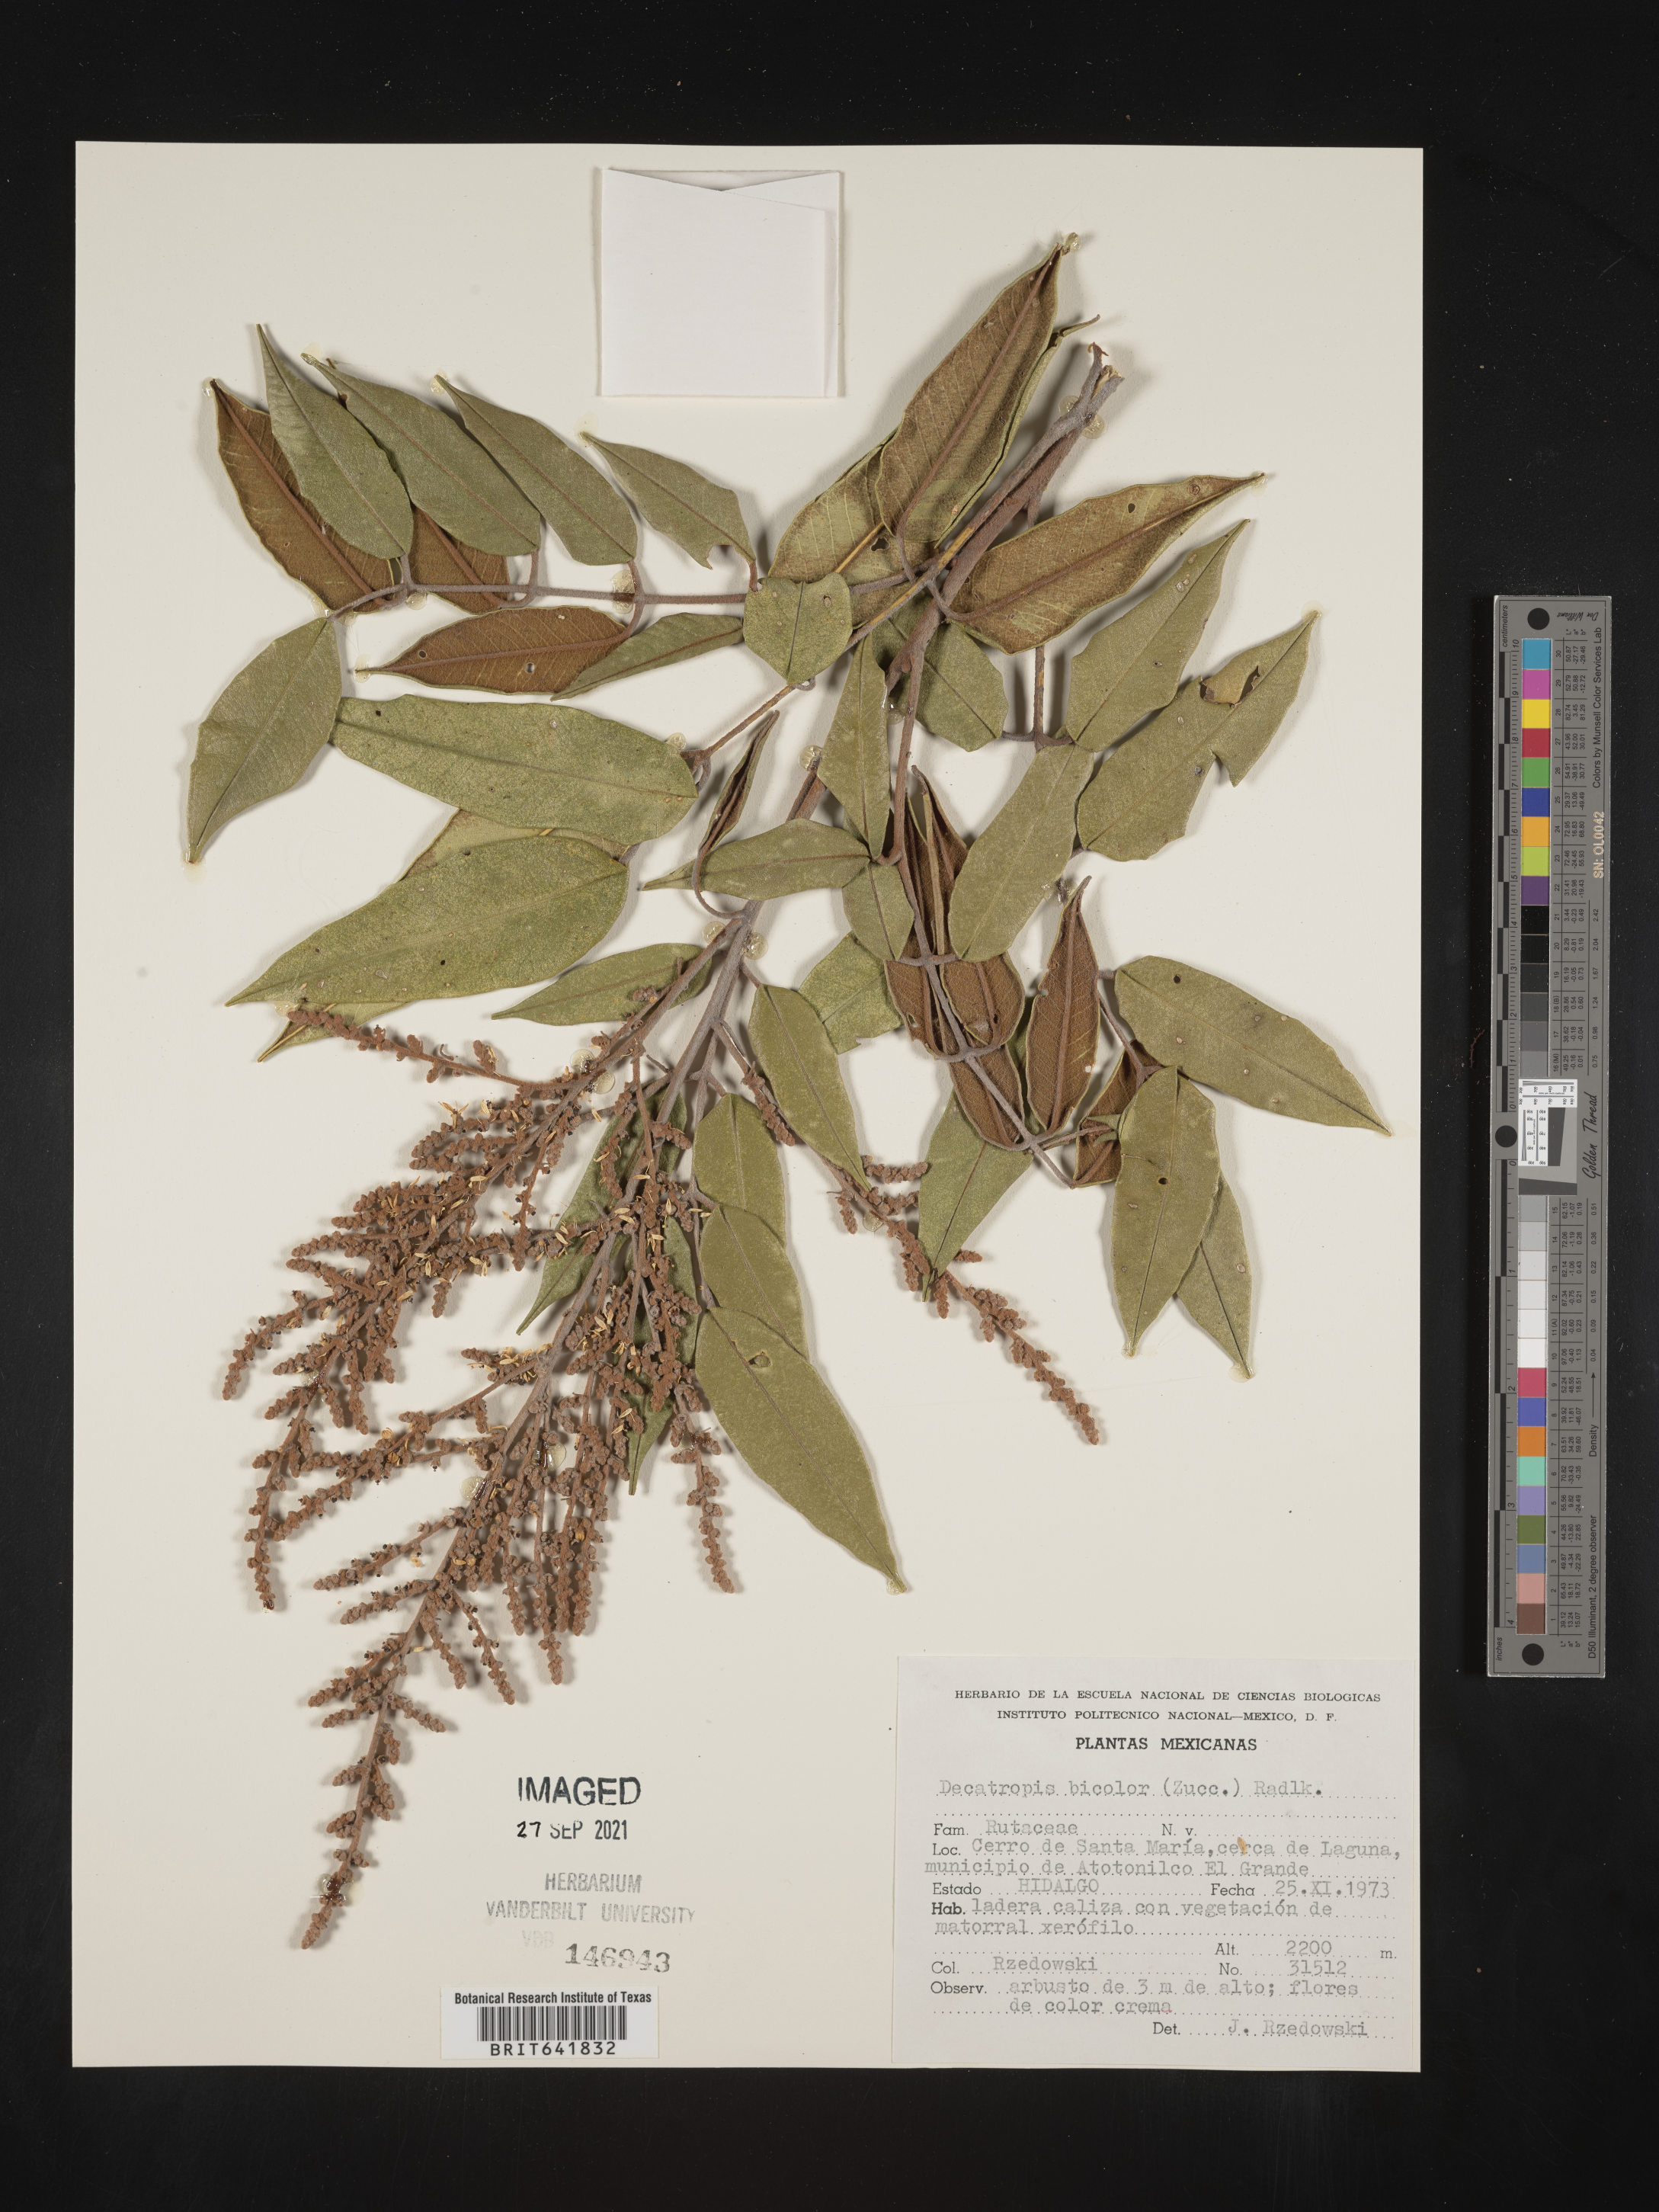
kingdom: Plantae
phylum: Tracheophyta
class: Magnoliopsida
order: Sapindales
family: Rutaceae
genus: Decatropis
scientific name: Decatropis
